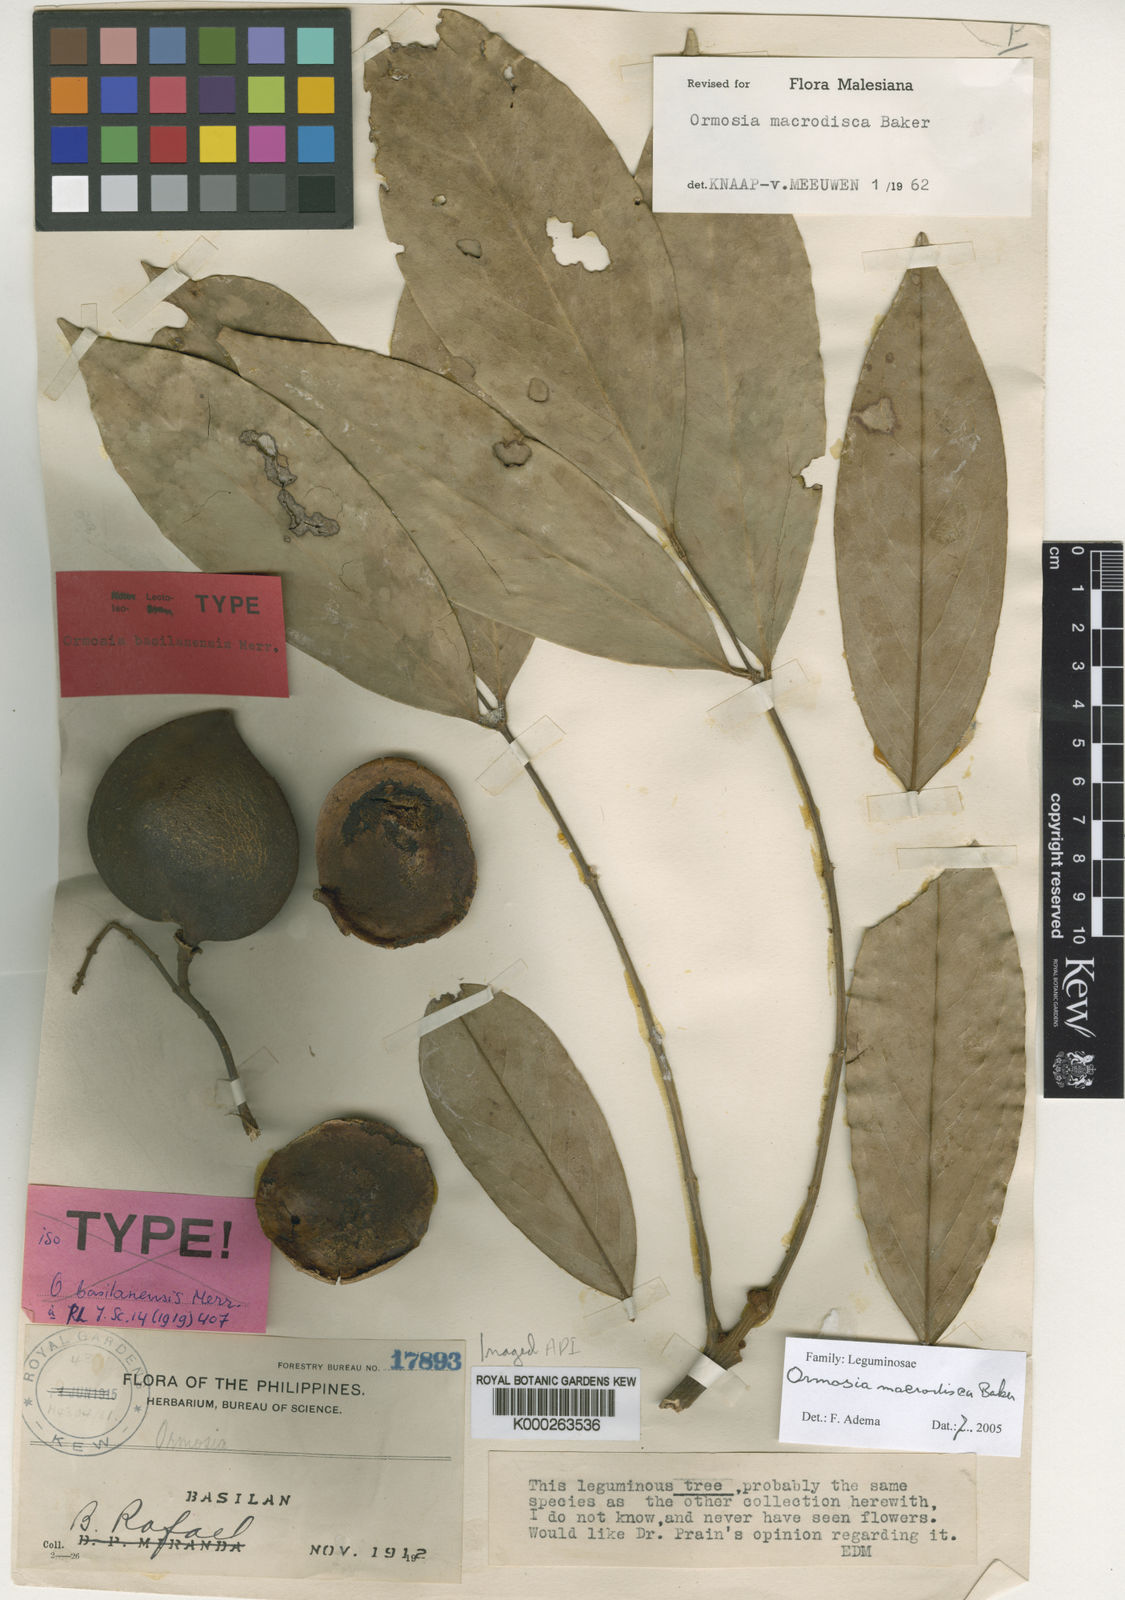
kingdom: Plantae
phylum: Tracheophyta
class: Magnoliopsida
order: Fabales
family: Fabaceae
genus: Ormosia
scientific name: Ormosia macrodisca
